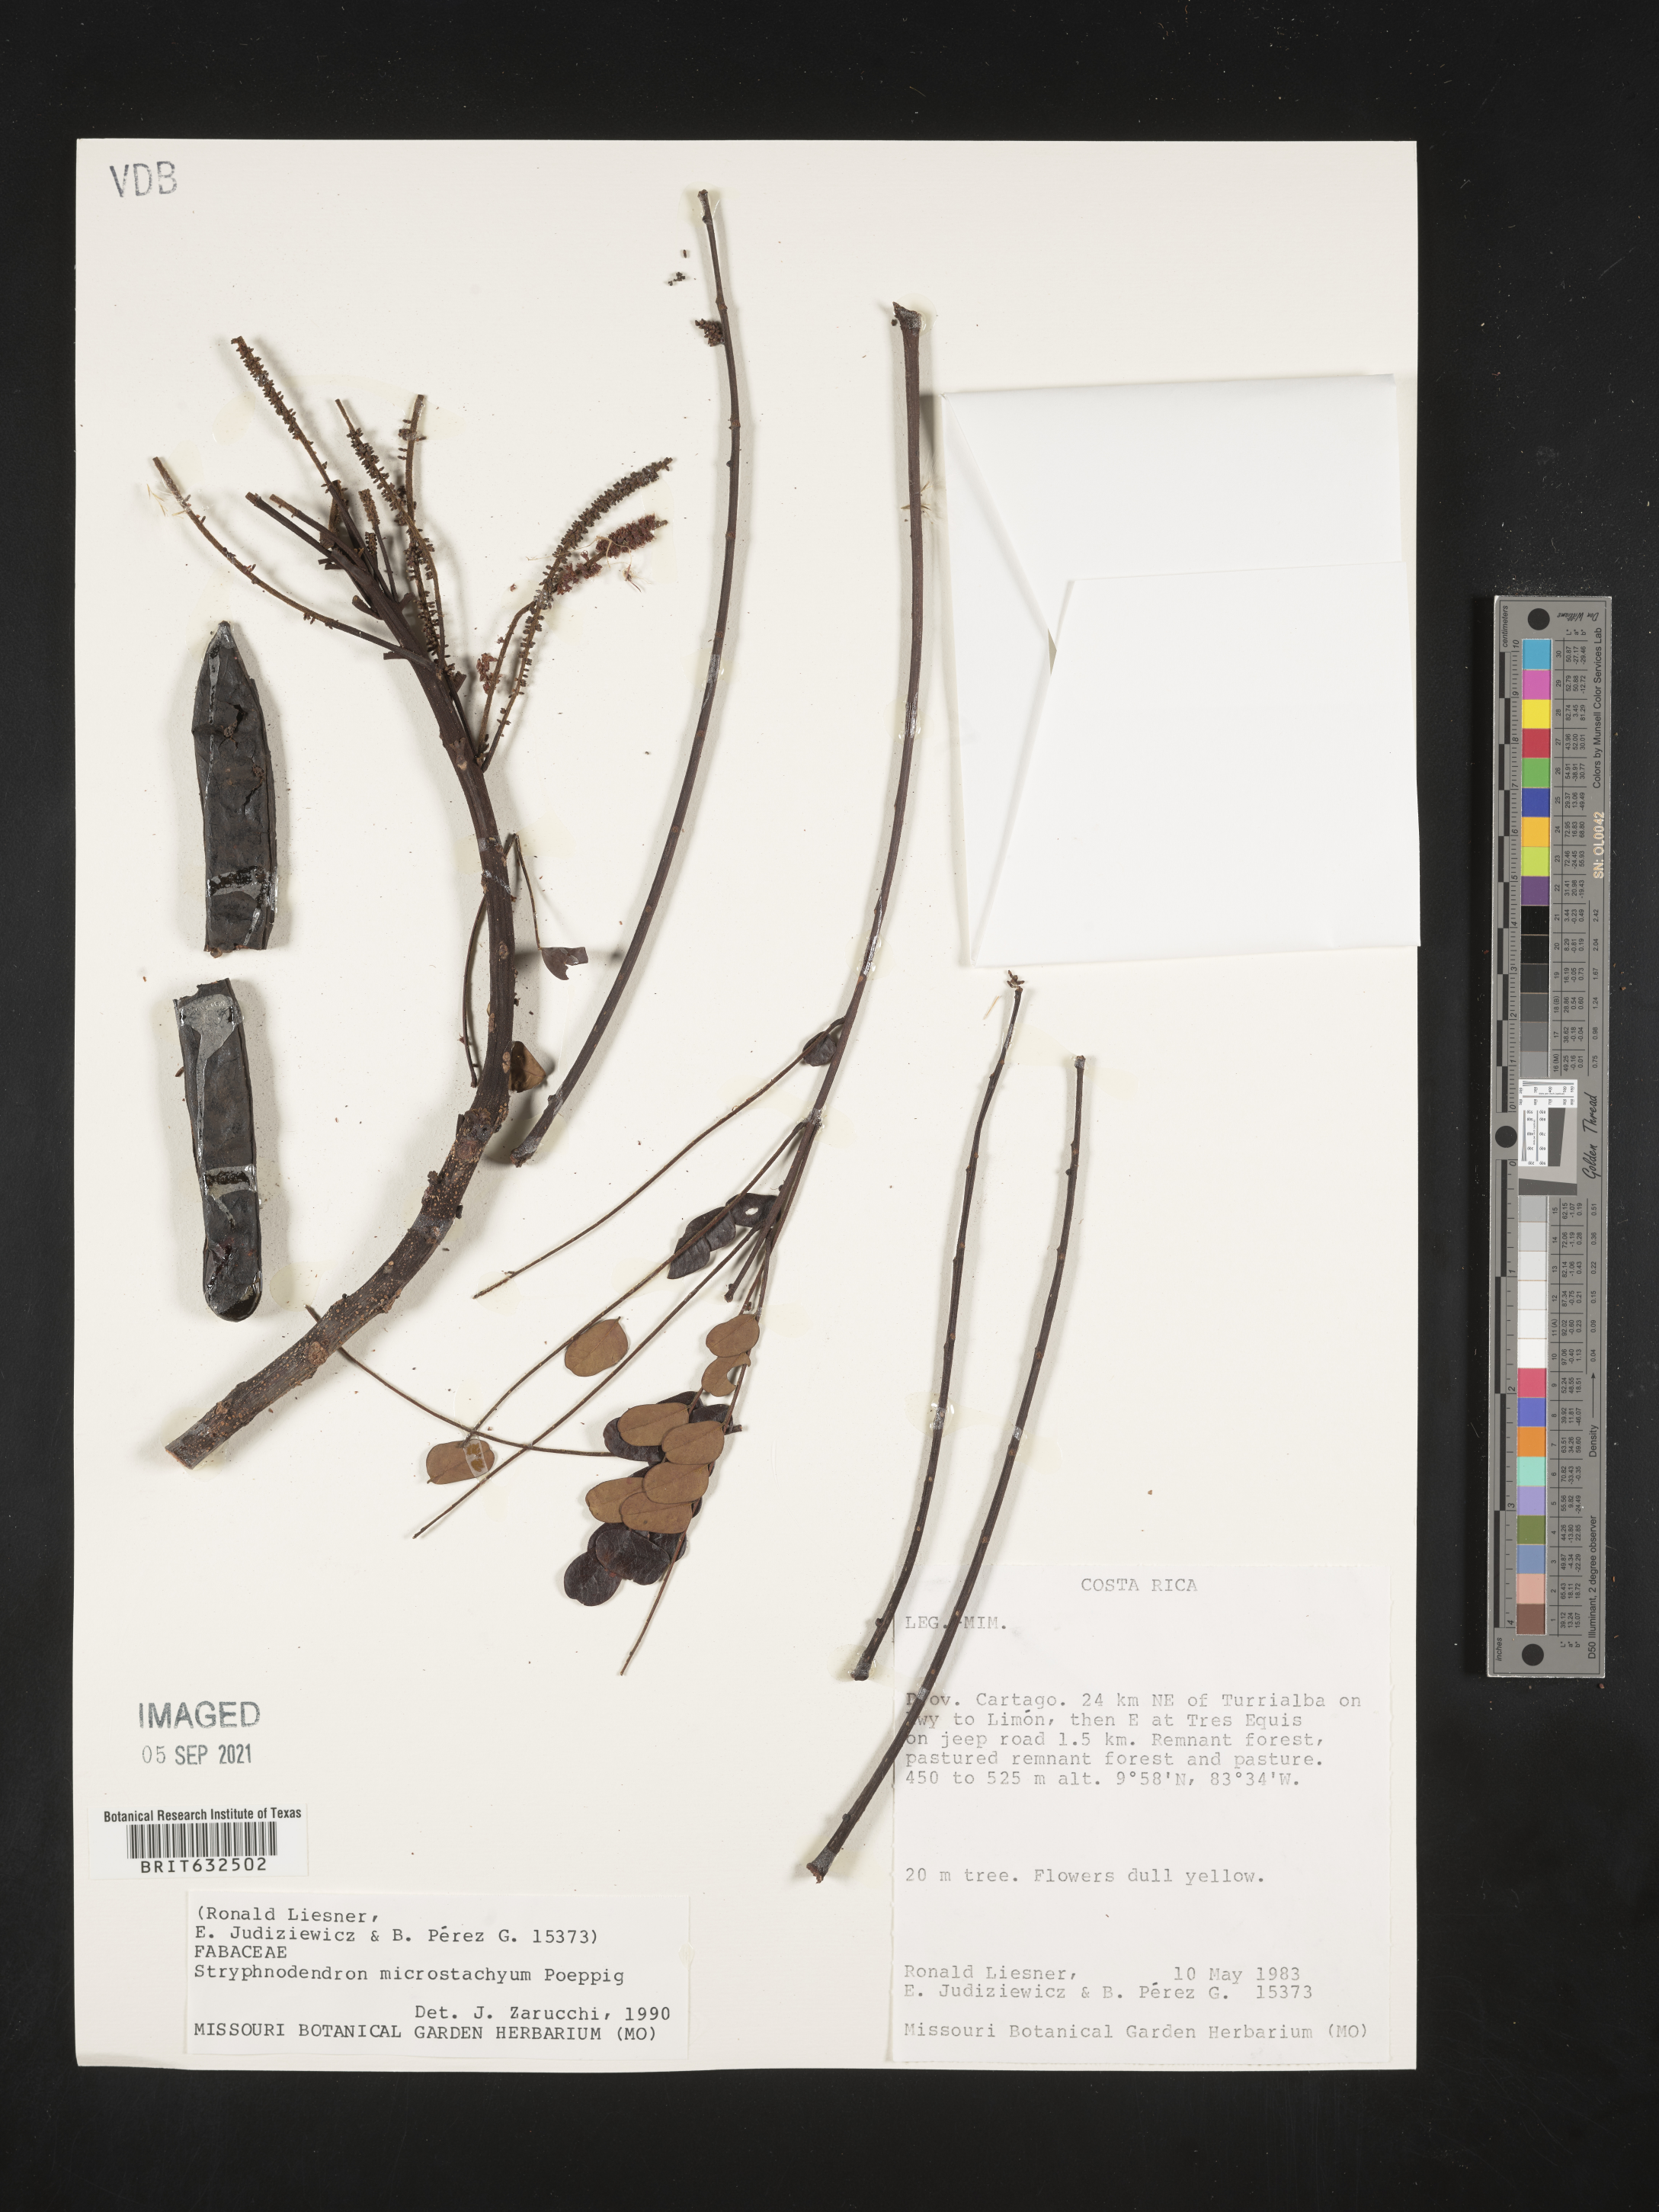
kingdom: Plantae
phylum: Tracheophyta
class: Magnoliopsida
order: Fabales
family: Fabaceae
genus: Stryphnodendron
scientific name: Stryphnodendron
